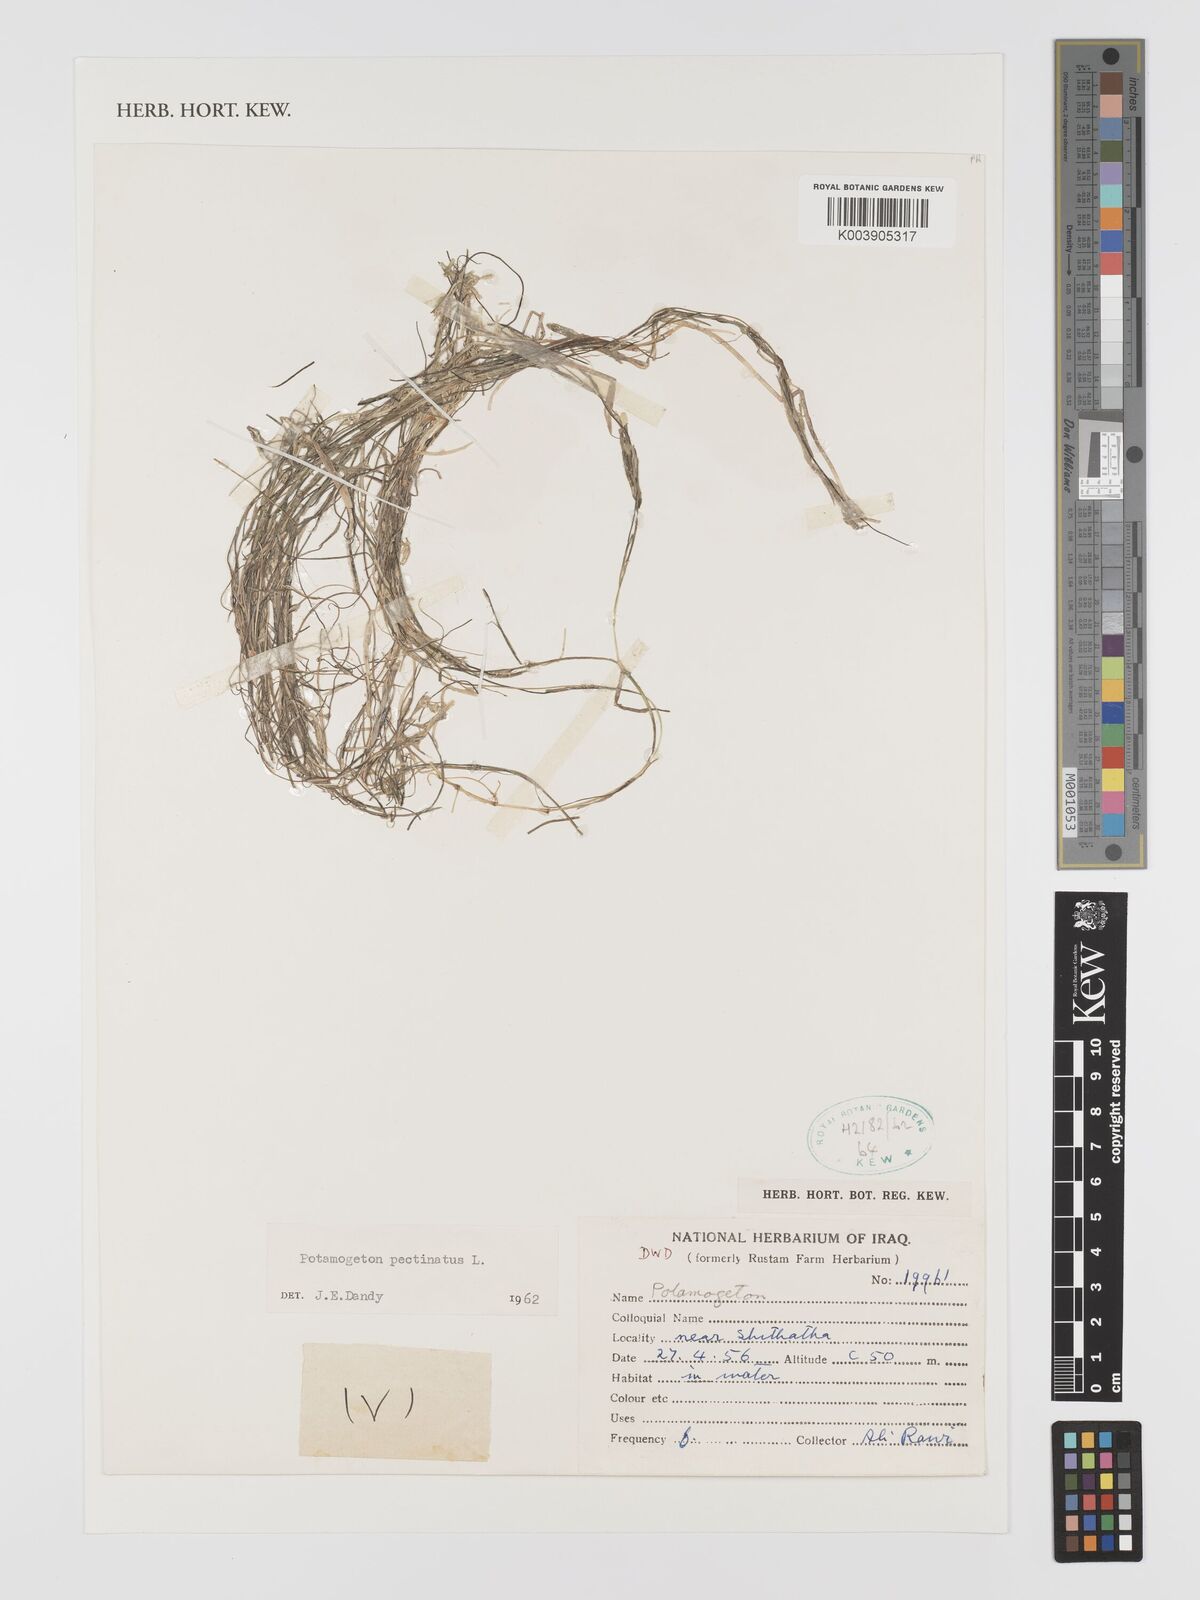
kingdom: Plantae
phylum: Tracheophyta
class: Liliopsida
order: Alismatales
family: Potamogetonaceae
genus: Stuckenia
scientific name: Stuckenia pectinata
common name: Sago pondweed
